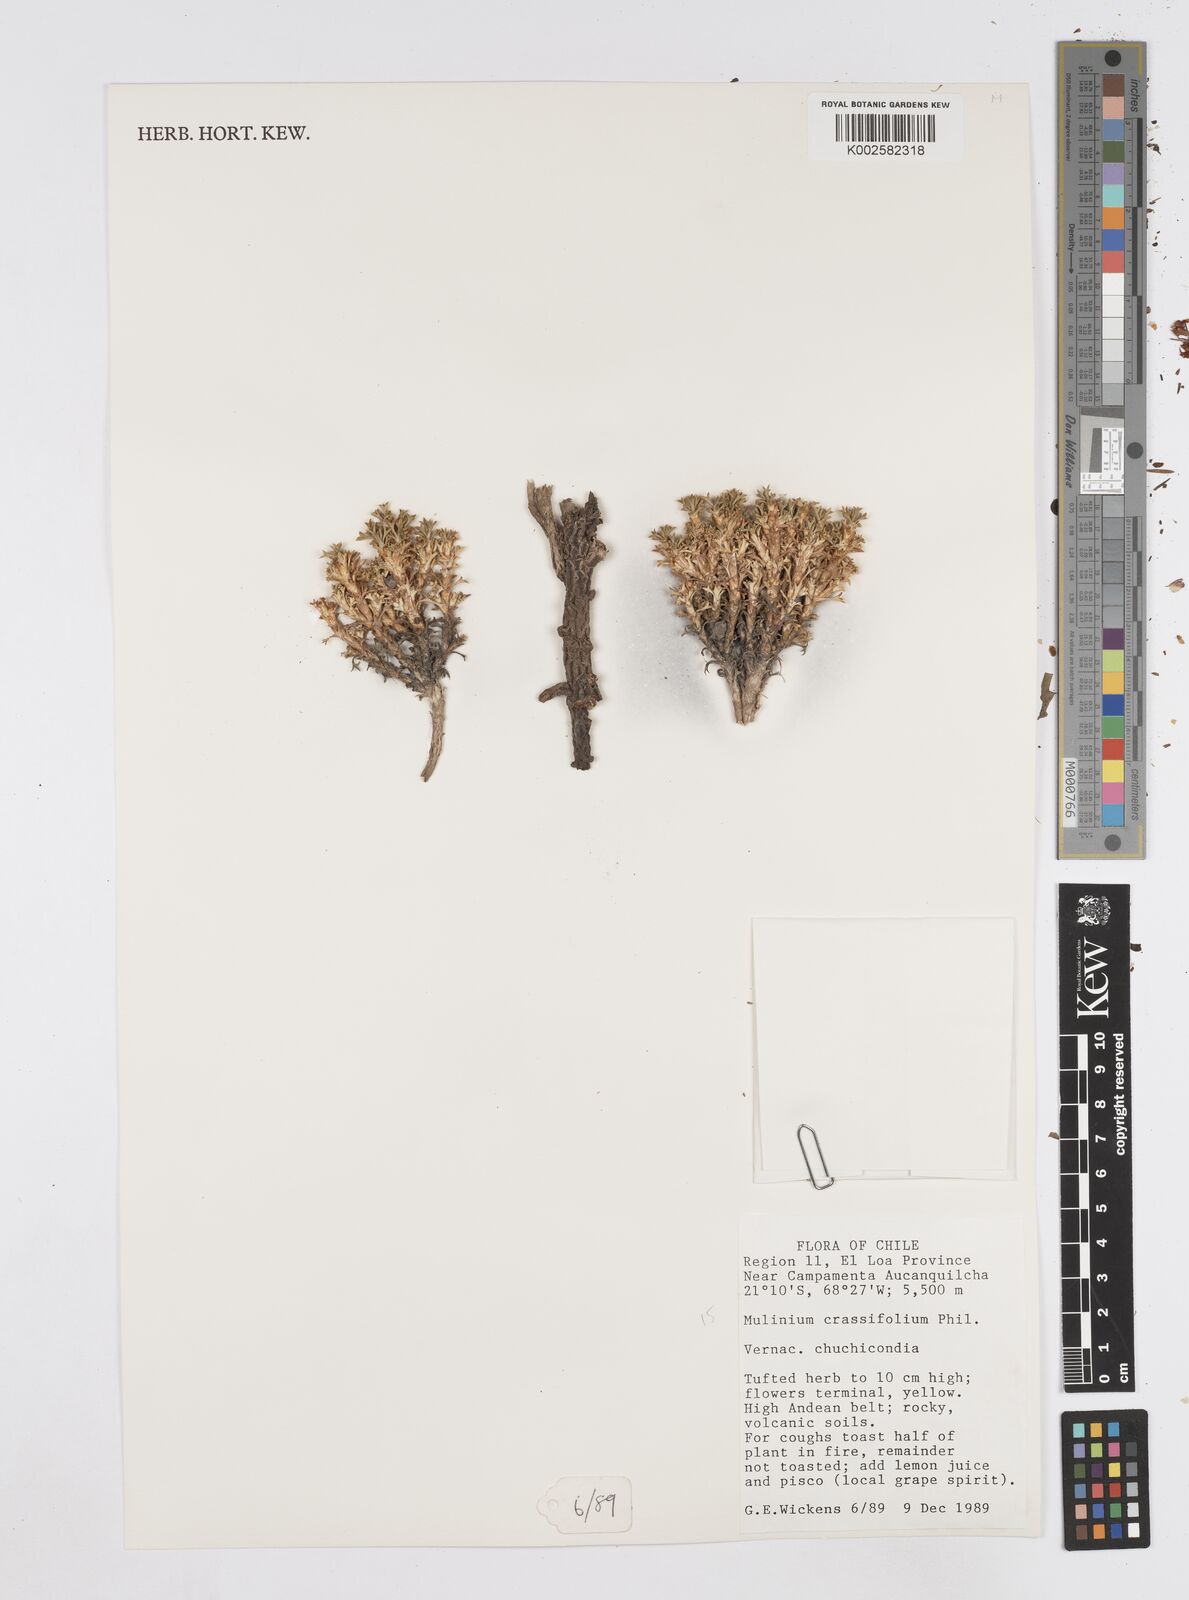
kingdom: Plantae
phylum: Tracheophyta
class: Magnoliopsida
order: Apiales
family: Apiaceae
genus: Azorella
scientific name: Azorella trisecta
